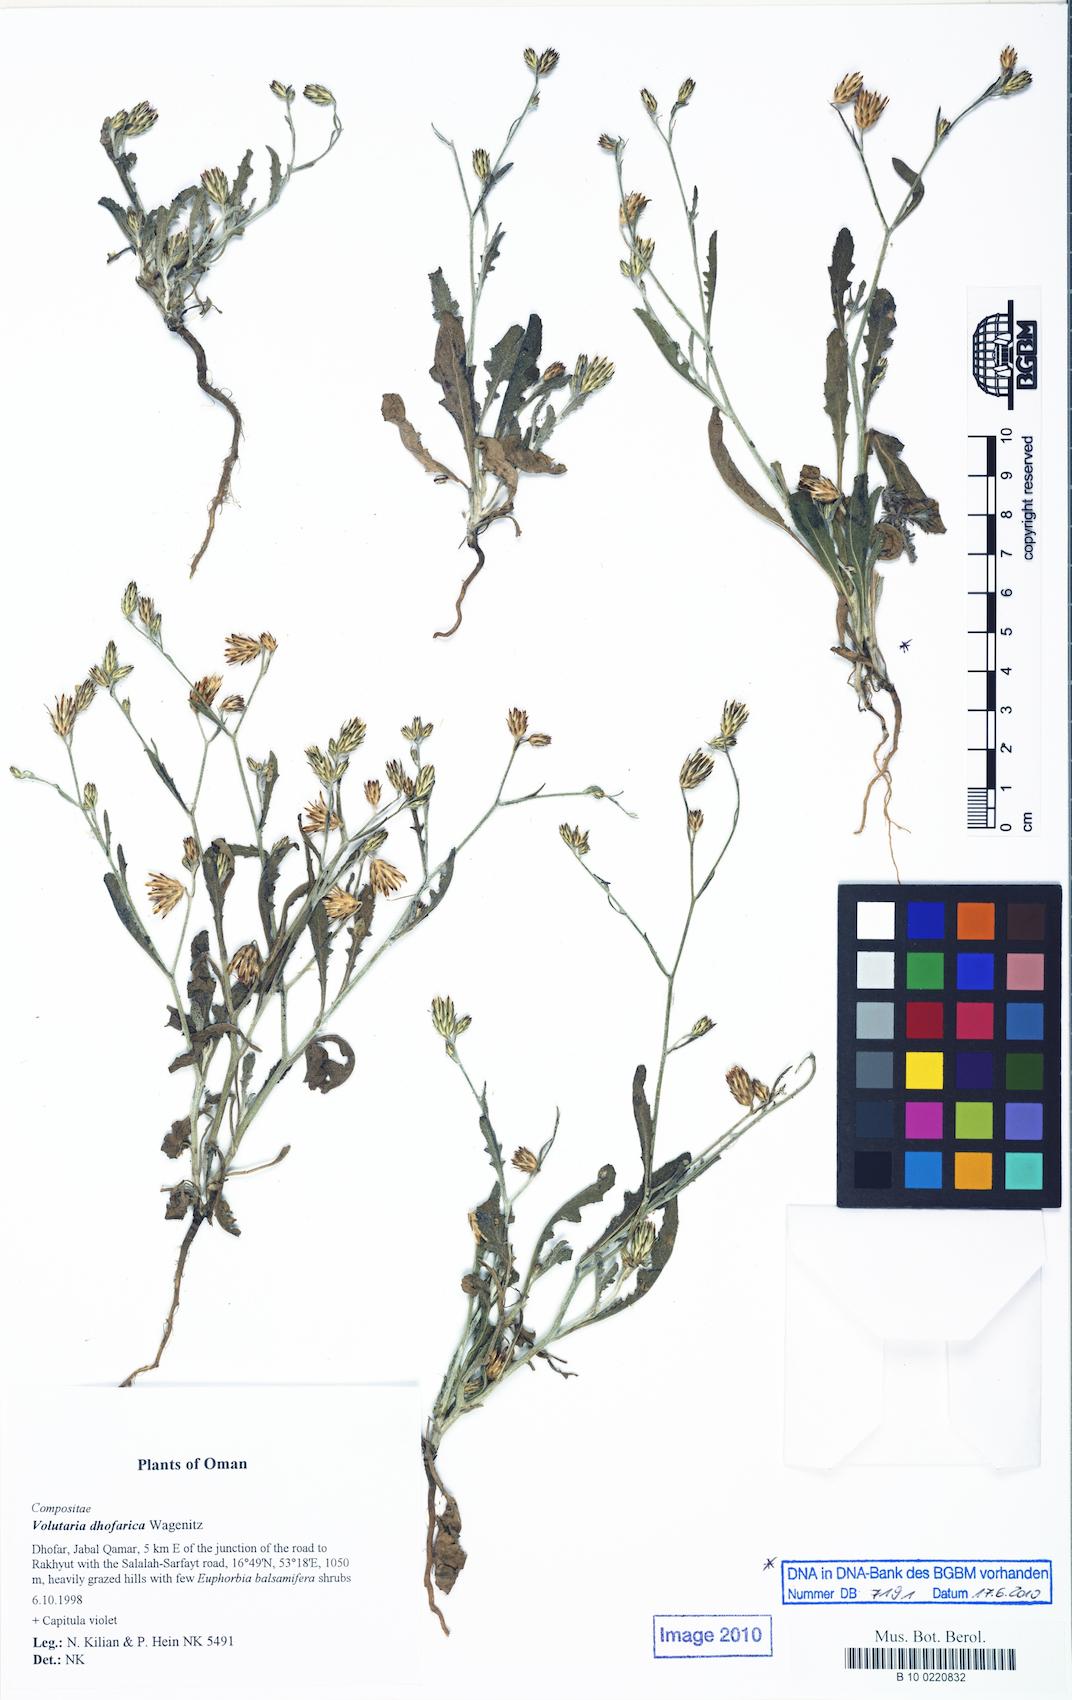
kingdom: Plantae
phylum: Tracheophyta
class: Magnoliopsida
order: Asterales
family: Asteraceae
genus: Volutaria
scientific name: Volutaria dhofarica
